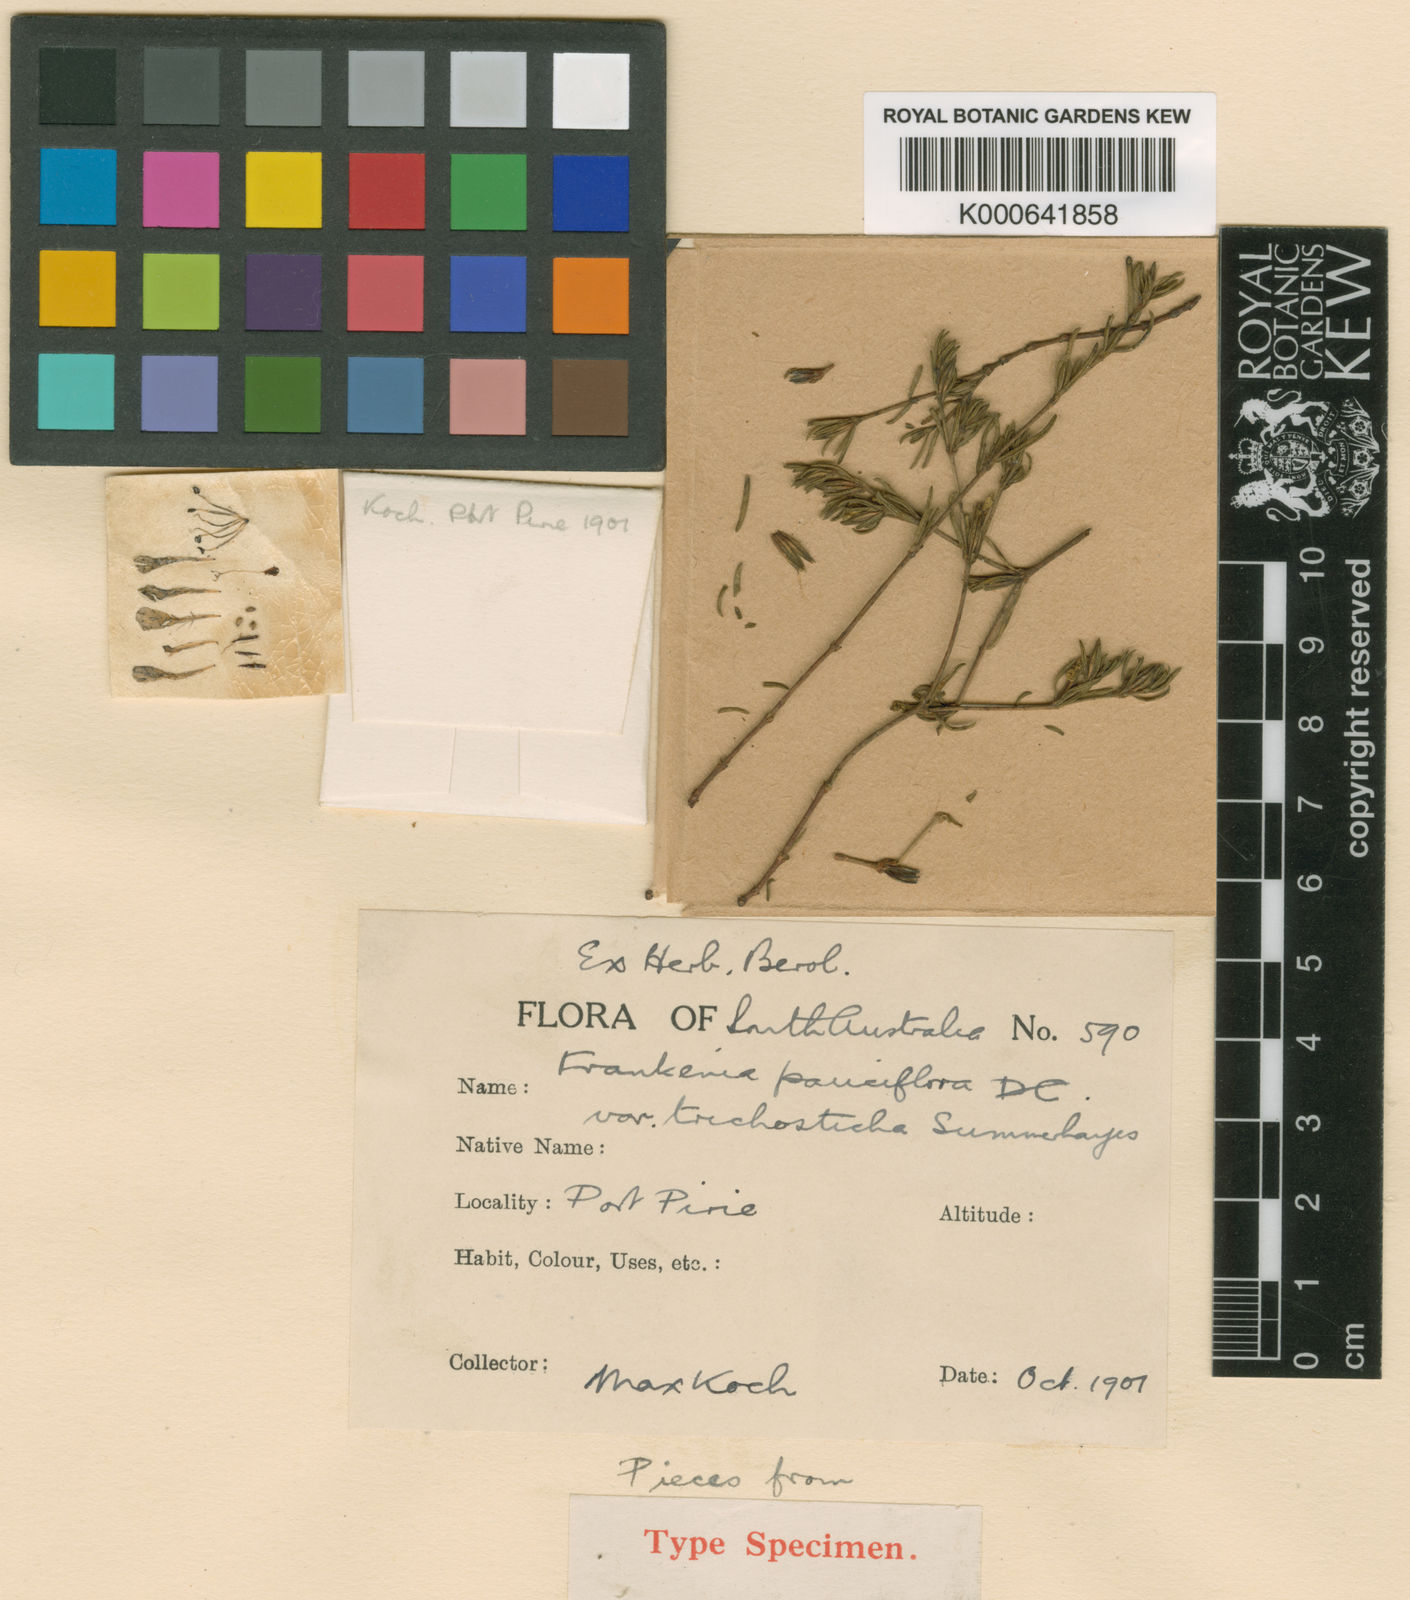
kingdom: Plantae
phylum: Tracheophyta
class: Magnoliopsida
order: Caryophyllales
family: Frankeniaceae
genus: Frankenia
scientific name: Frankenia pauciflora
